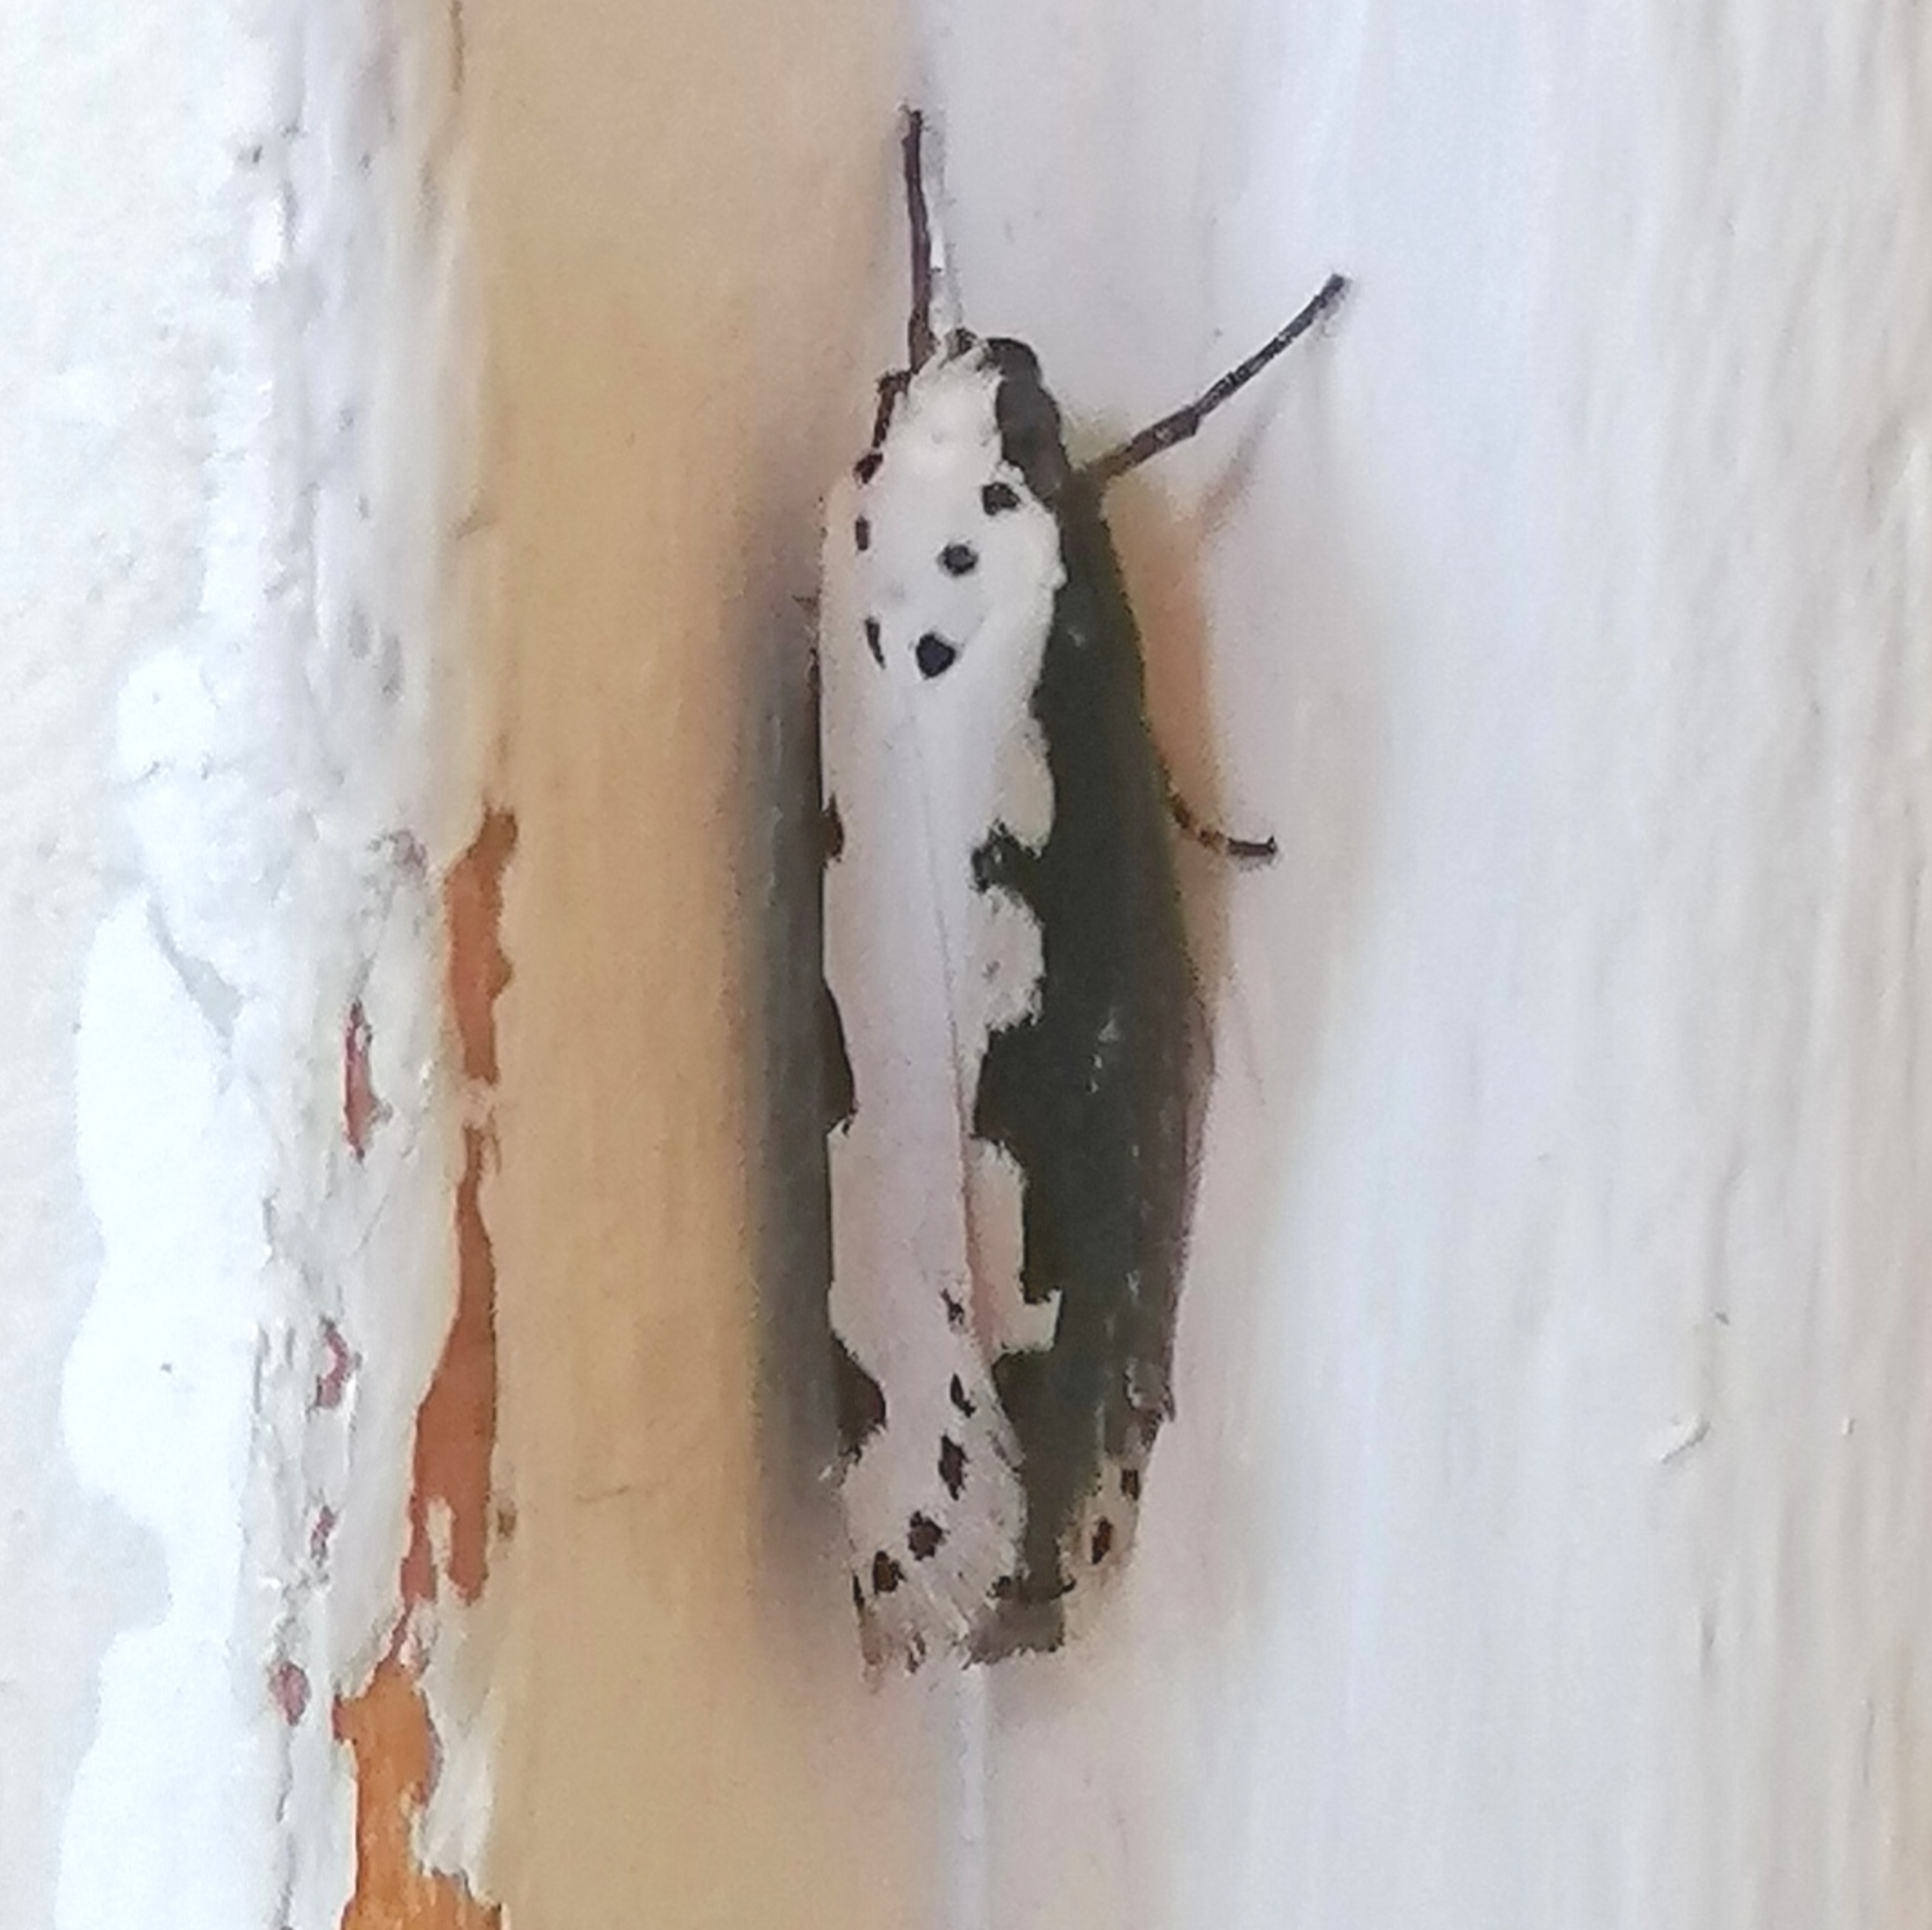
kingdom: Animalia
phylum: Arthropoda
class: Insecta
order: Lepidoptera
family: Ethmiidae
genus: Ethmia
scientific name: Ethmia bipunctella
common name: Slangehovedmøl
